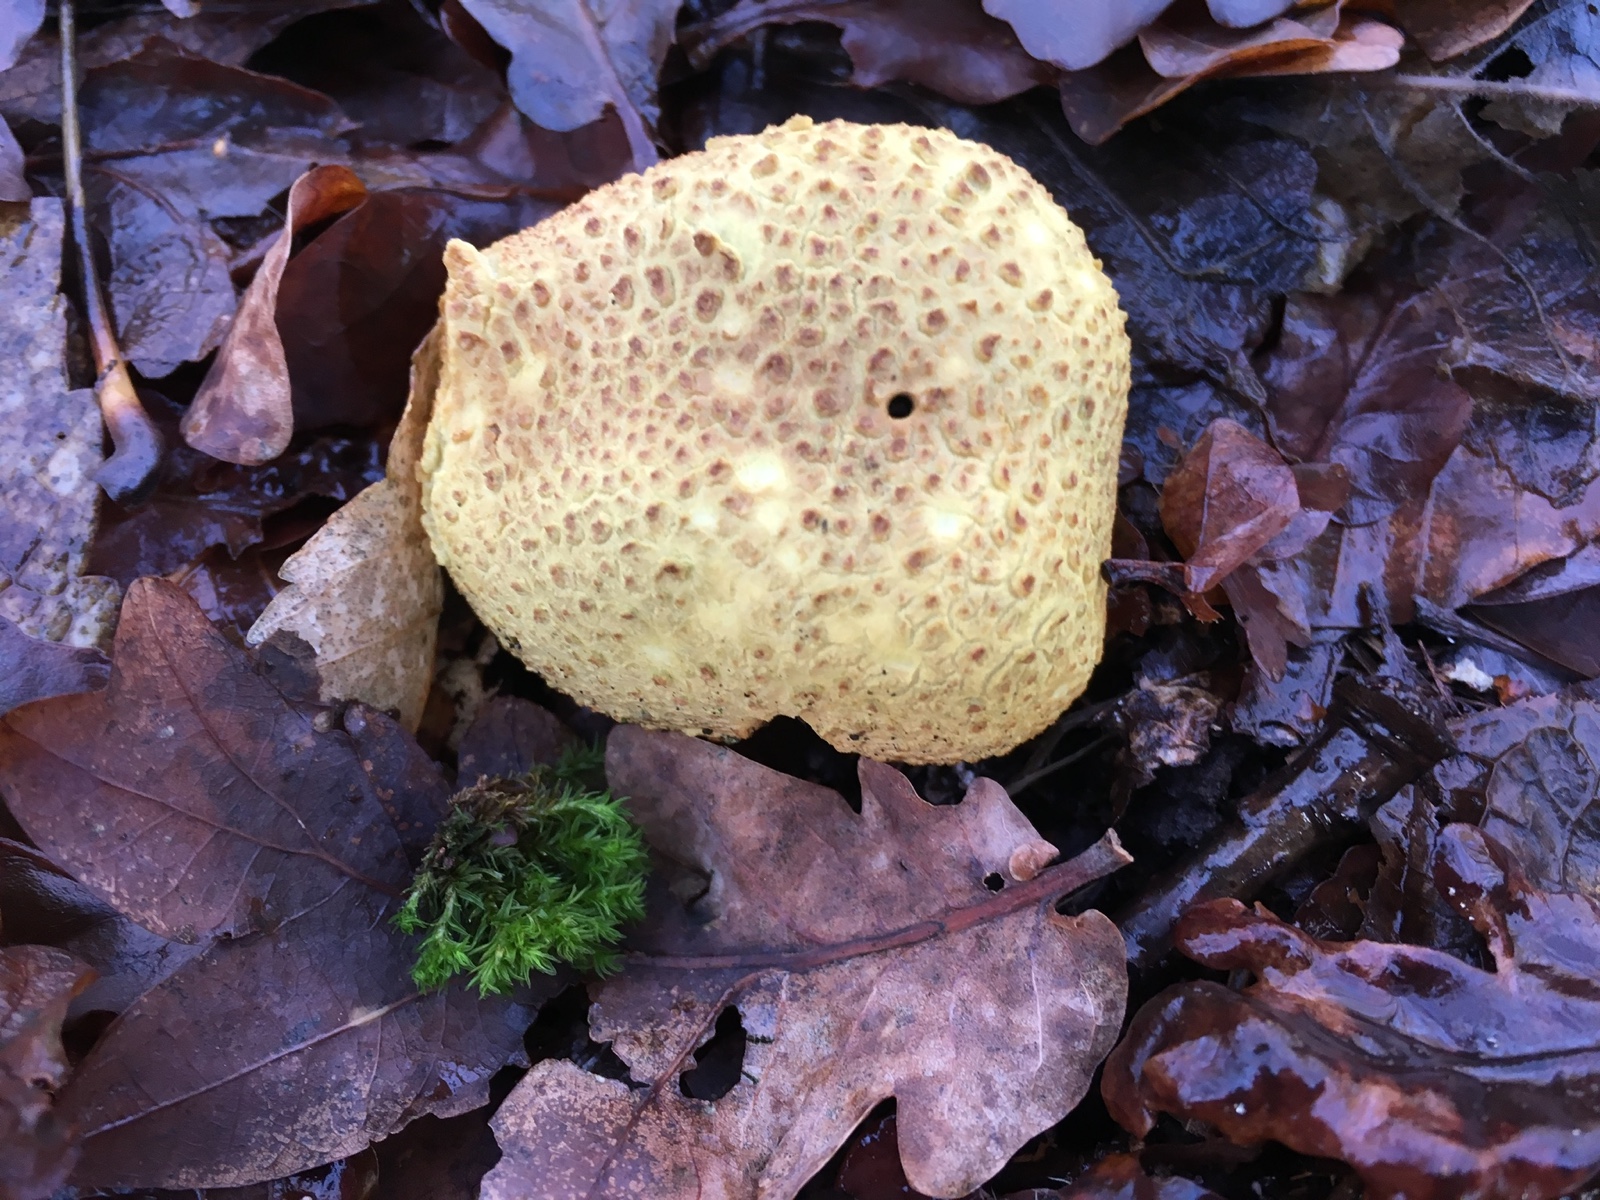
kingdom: Fungi
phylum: Basidiomycota
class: Agaricomycetes
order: Boletales
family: Sclerodermataceae
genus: Scleroderma
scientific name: Scleroderma citrinum
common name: almindelig bruskbold
